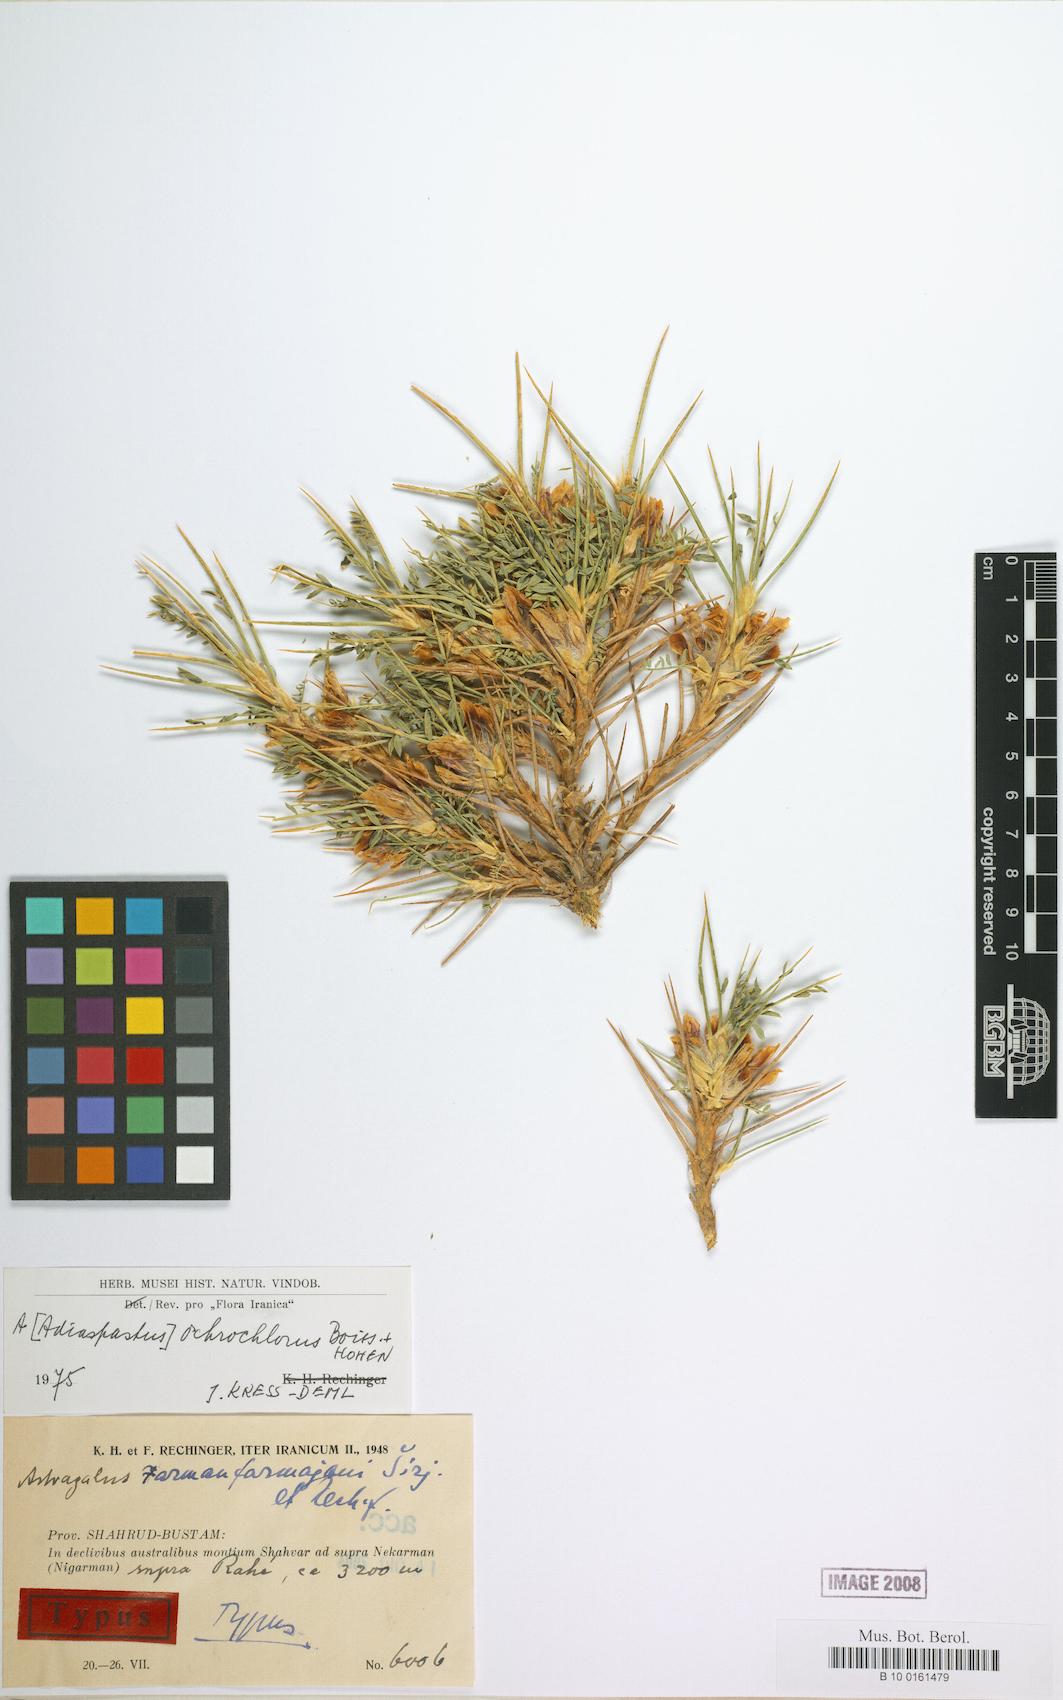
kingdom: Plantae
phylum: Tracheophyta
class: Magnoliopsida
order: Fabales
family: Fabaceae
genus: Astragalus
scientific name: Astragalus ochrochlorus
